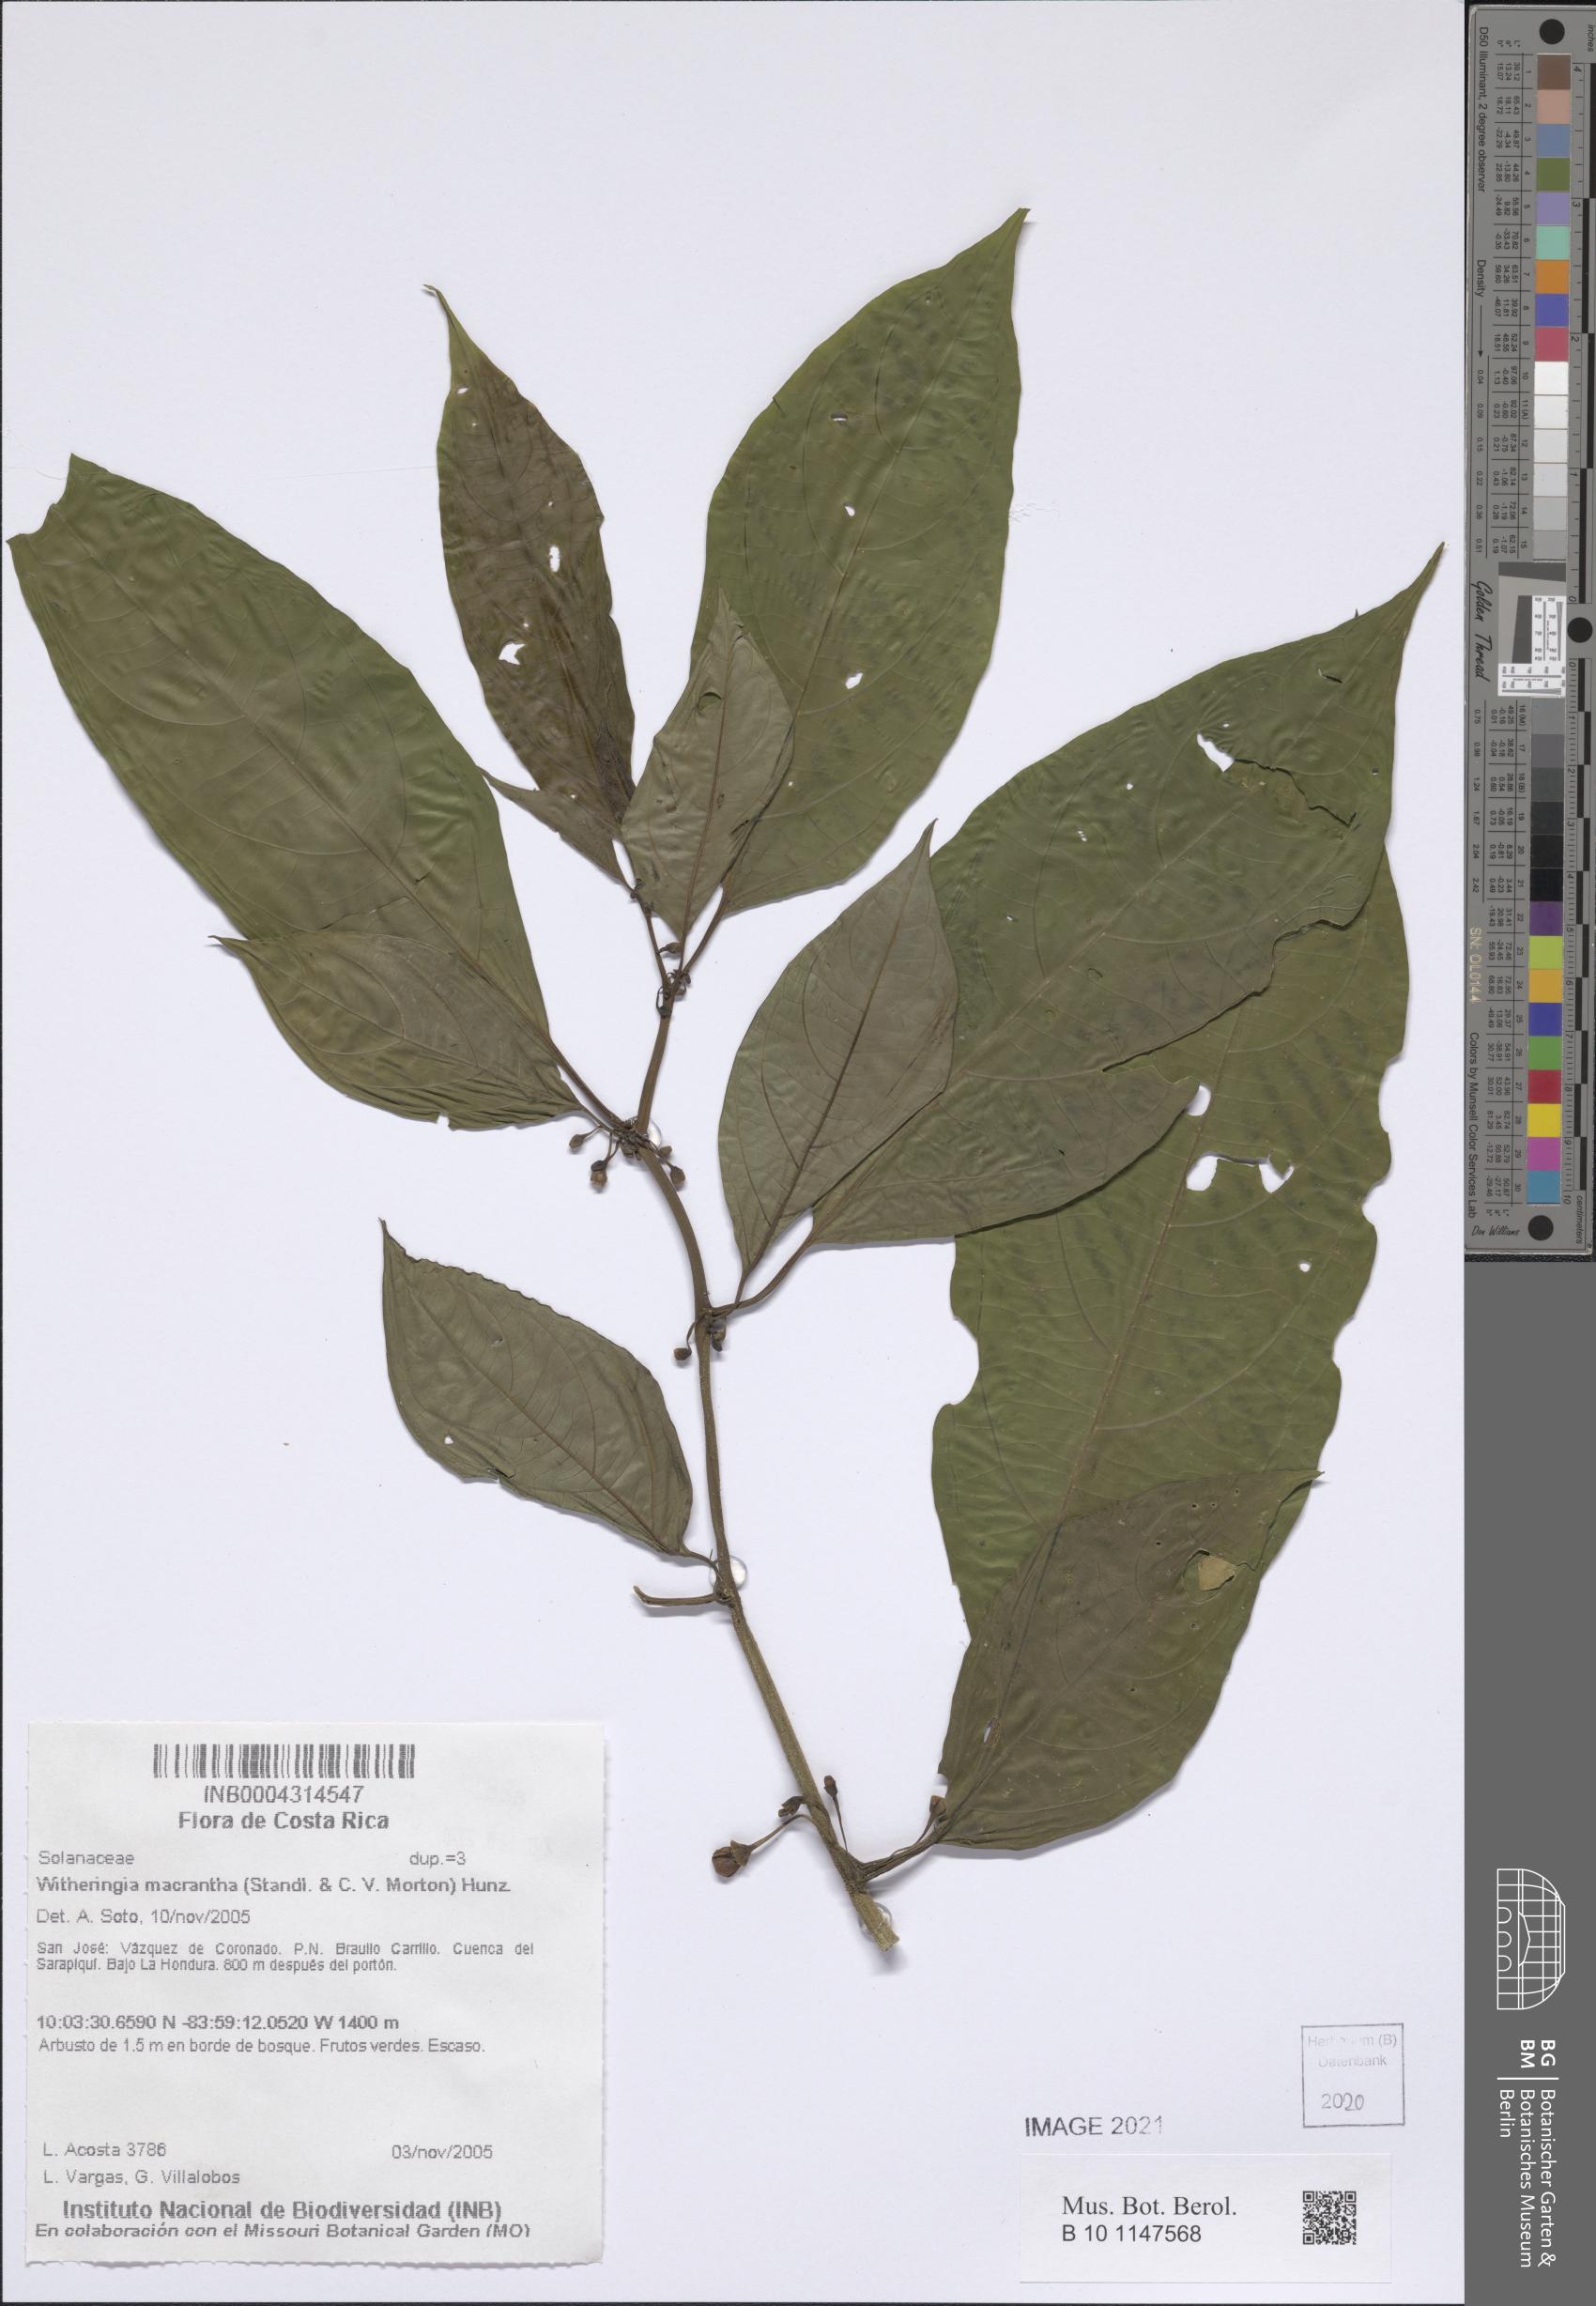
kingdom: Plantae
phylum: Tracheophyta
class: Magnoliopsida
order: Solanales
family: Solanaceae
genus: Witheringia
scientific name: Witheringia maculata
